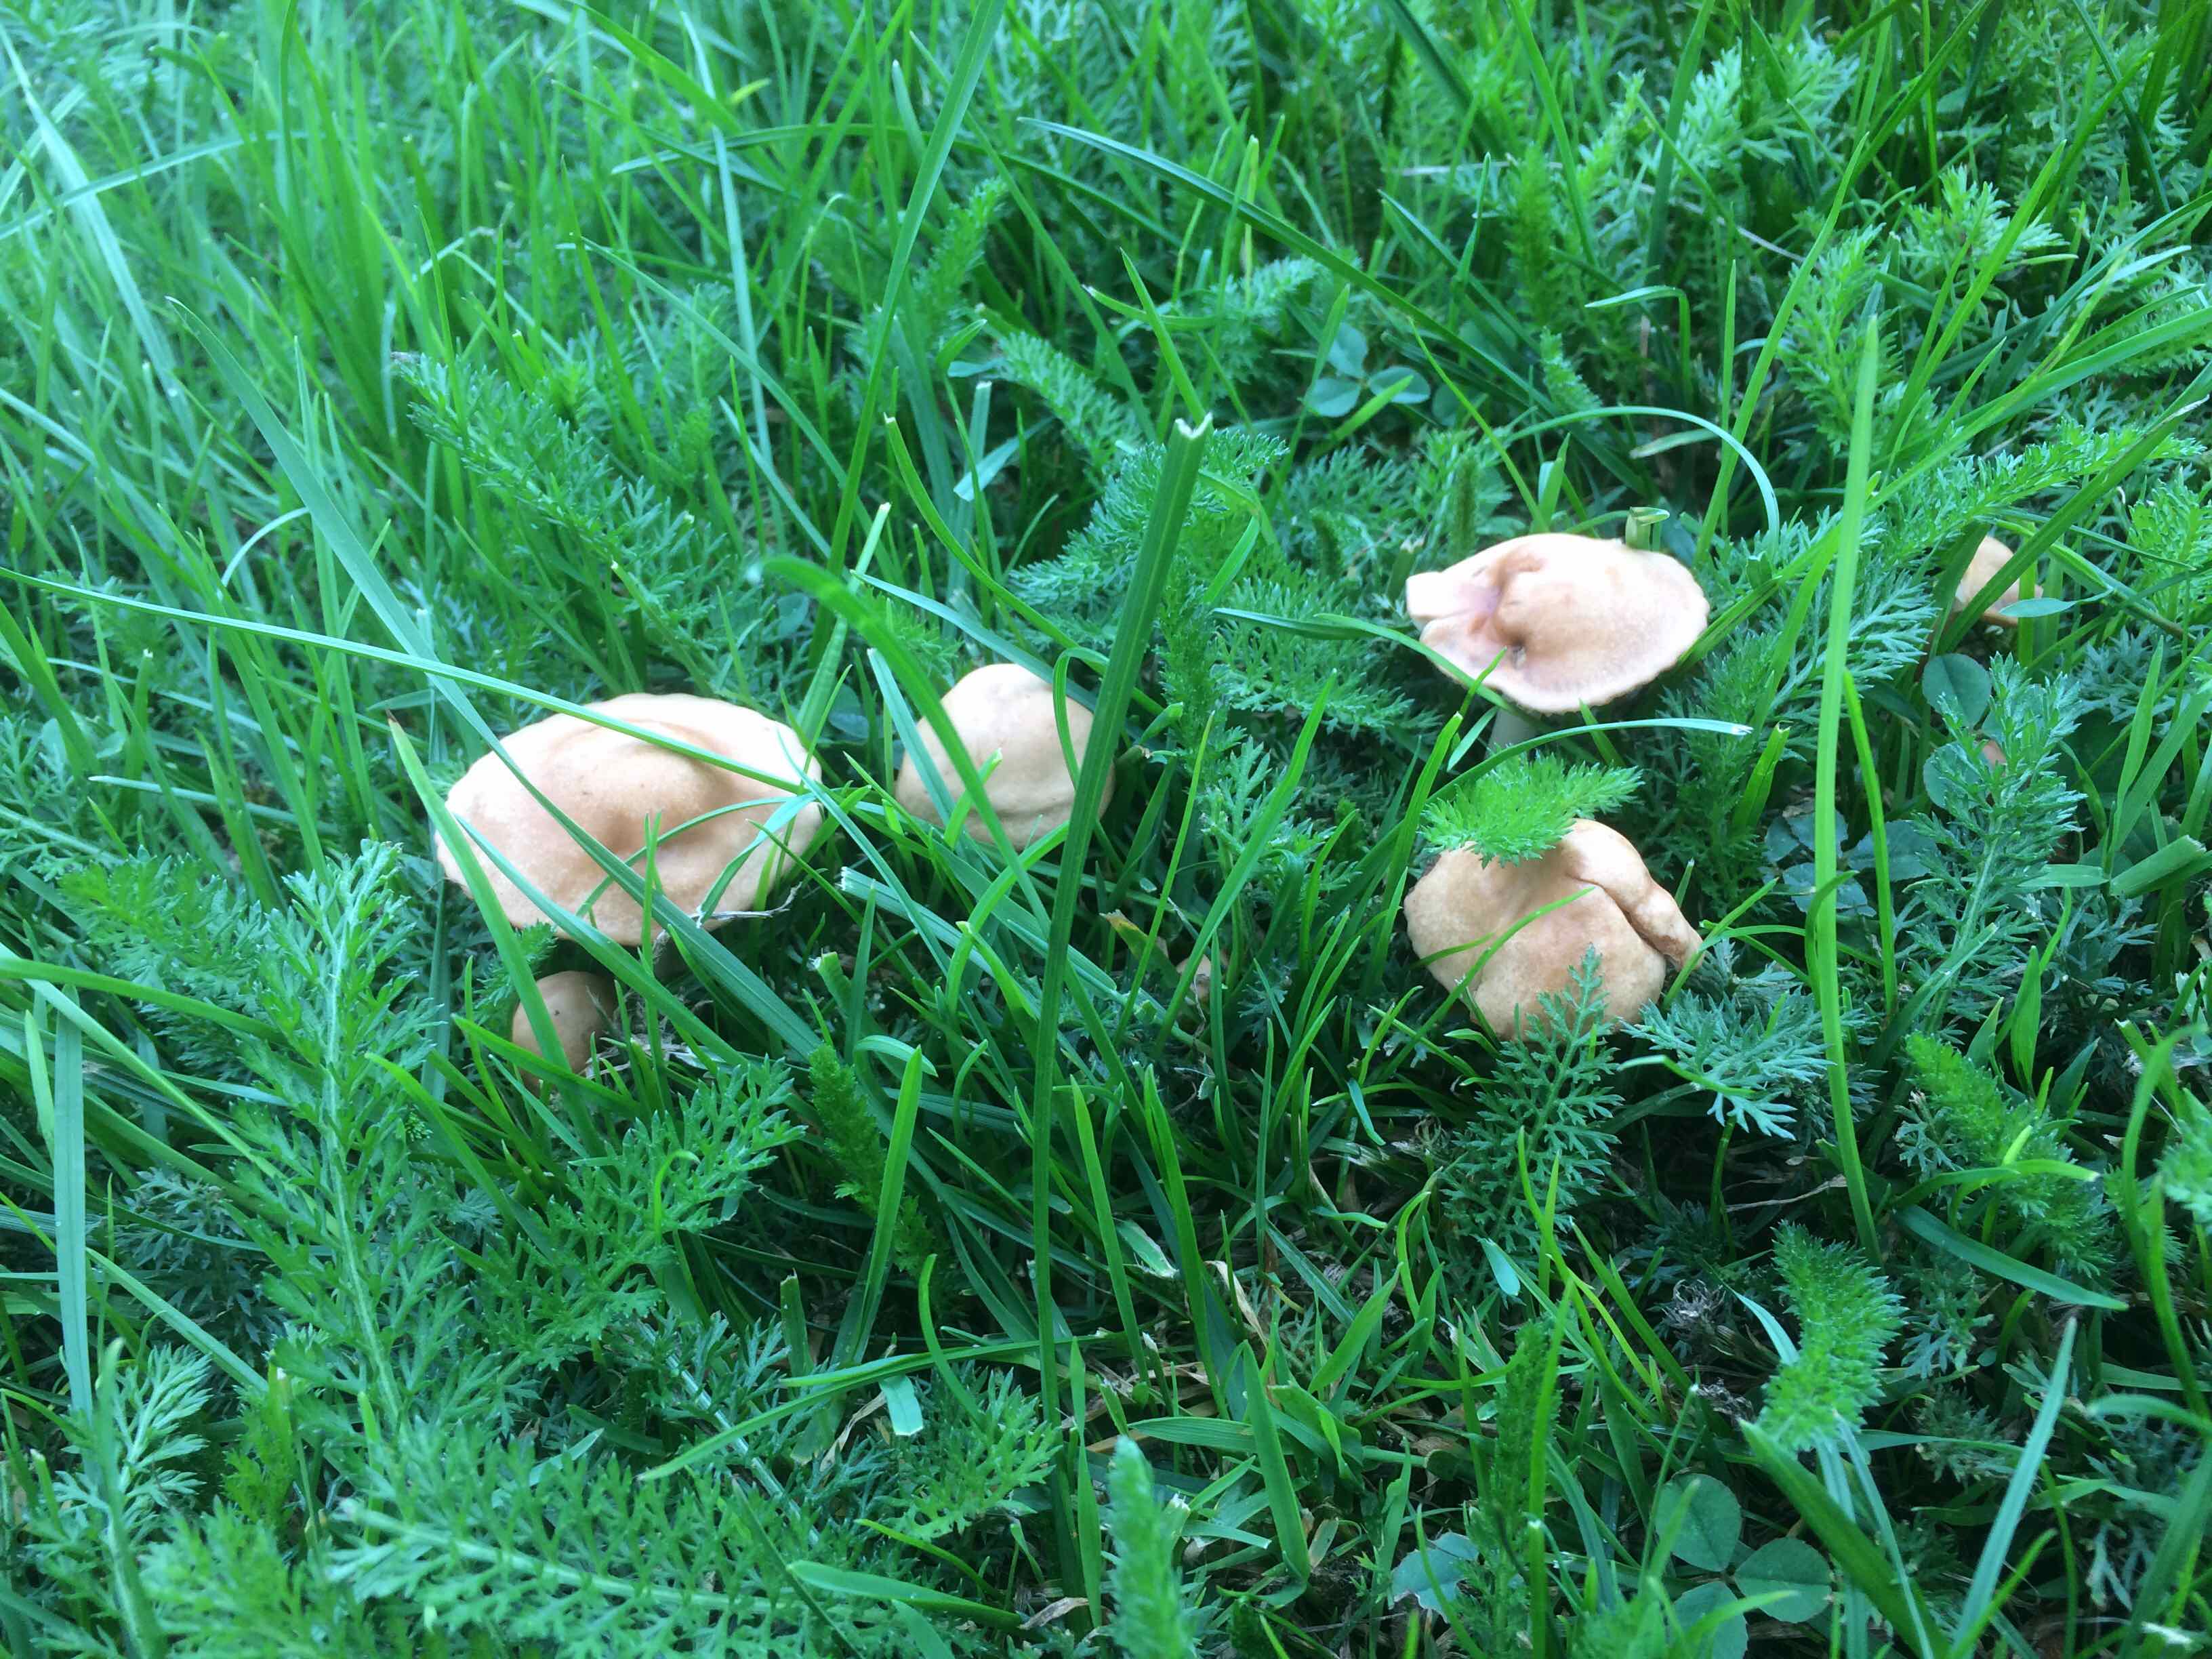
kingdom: Fungi
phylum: Basidiomycota
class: Agaricomycetes
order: Agaricales
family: Marasmiaceae
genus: Marasmius
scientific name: Marasmius oreades
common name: elledans-bruskhat
